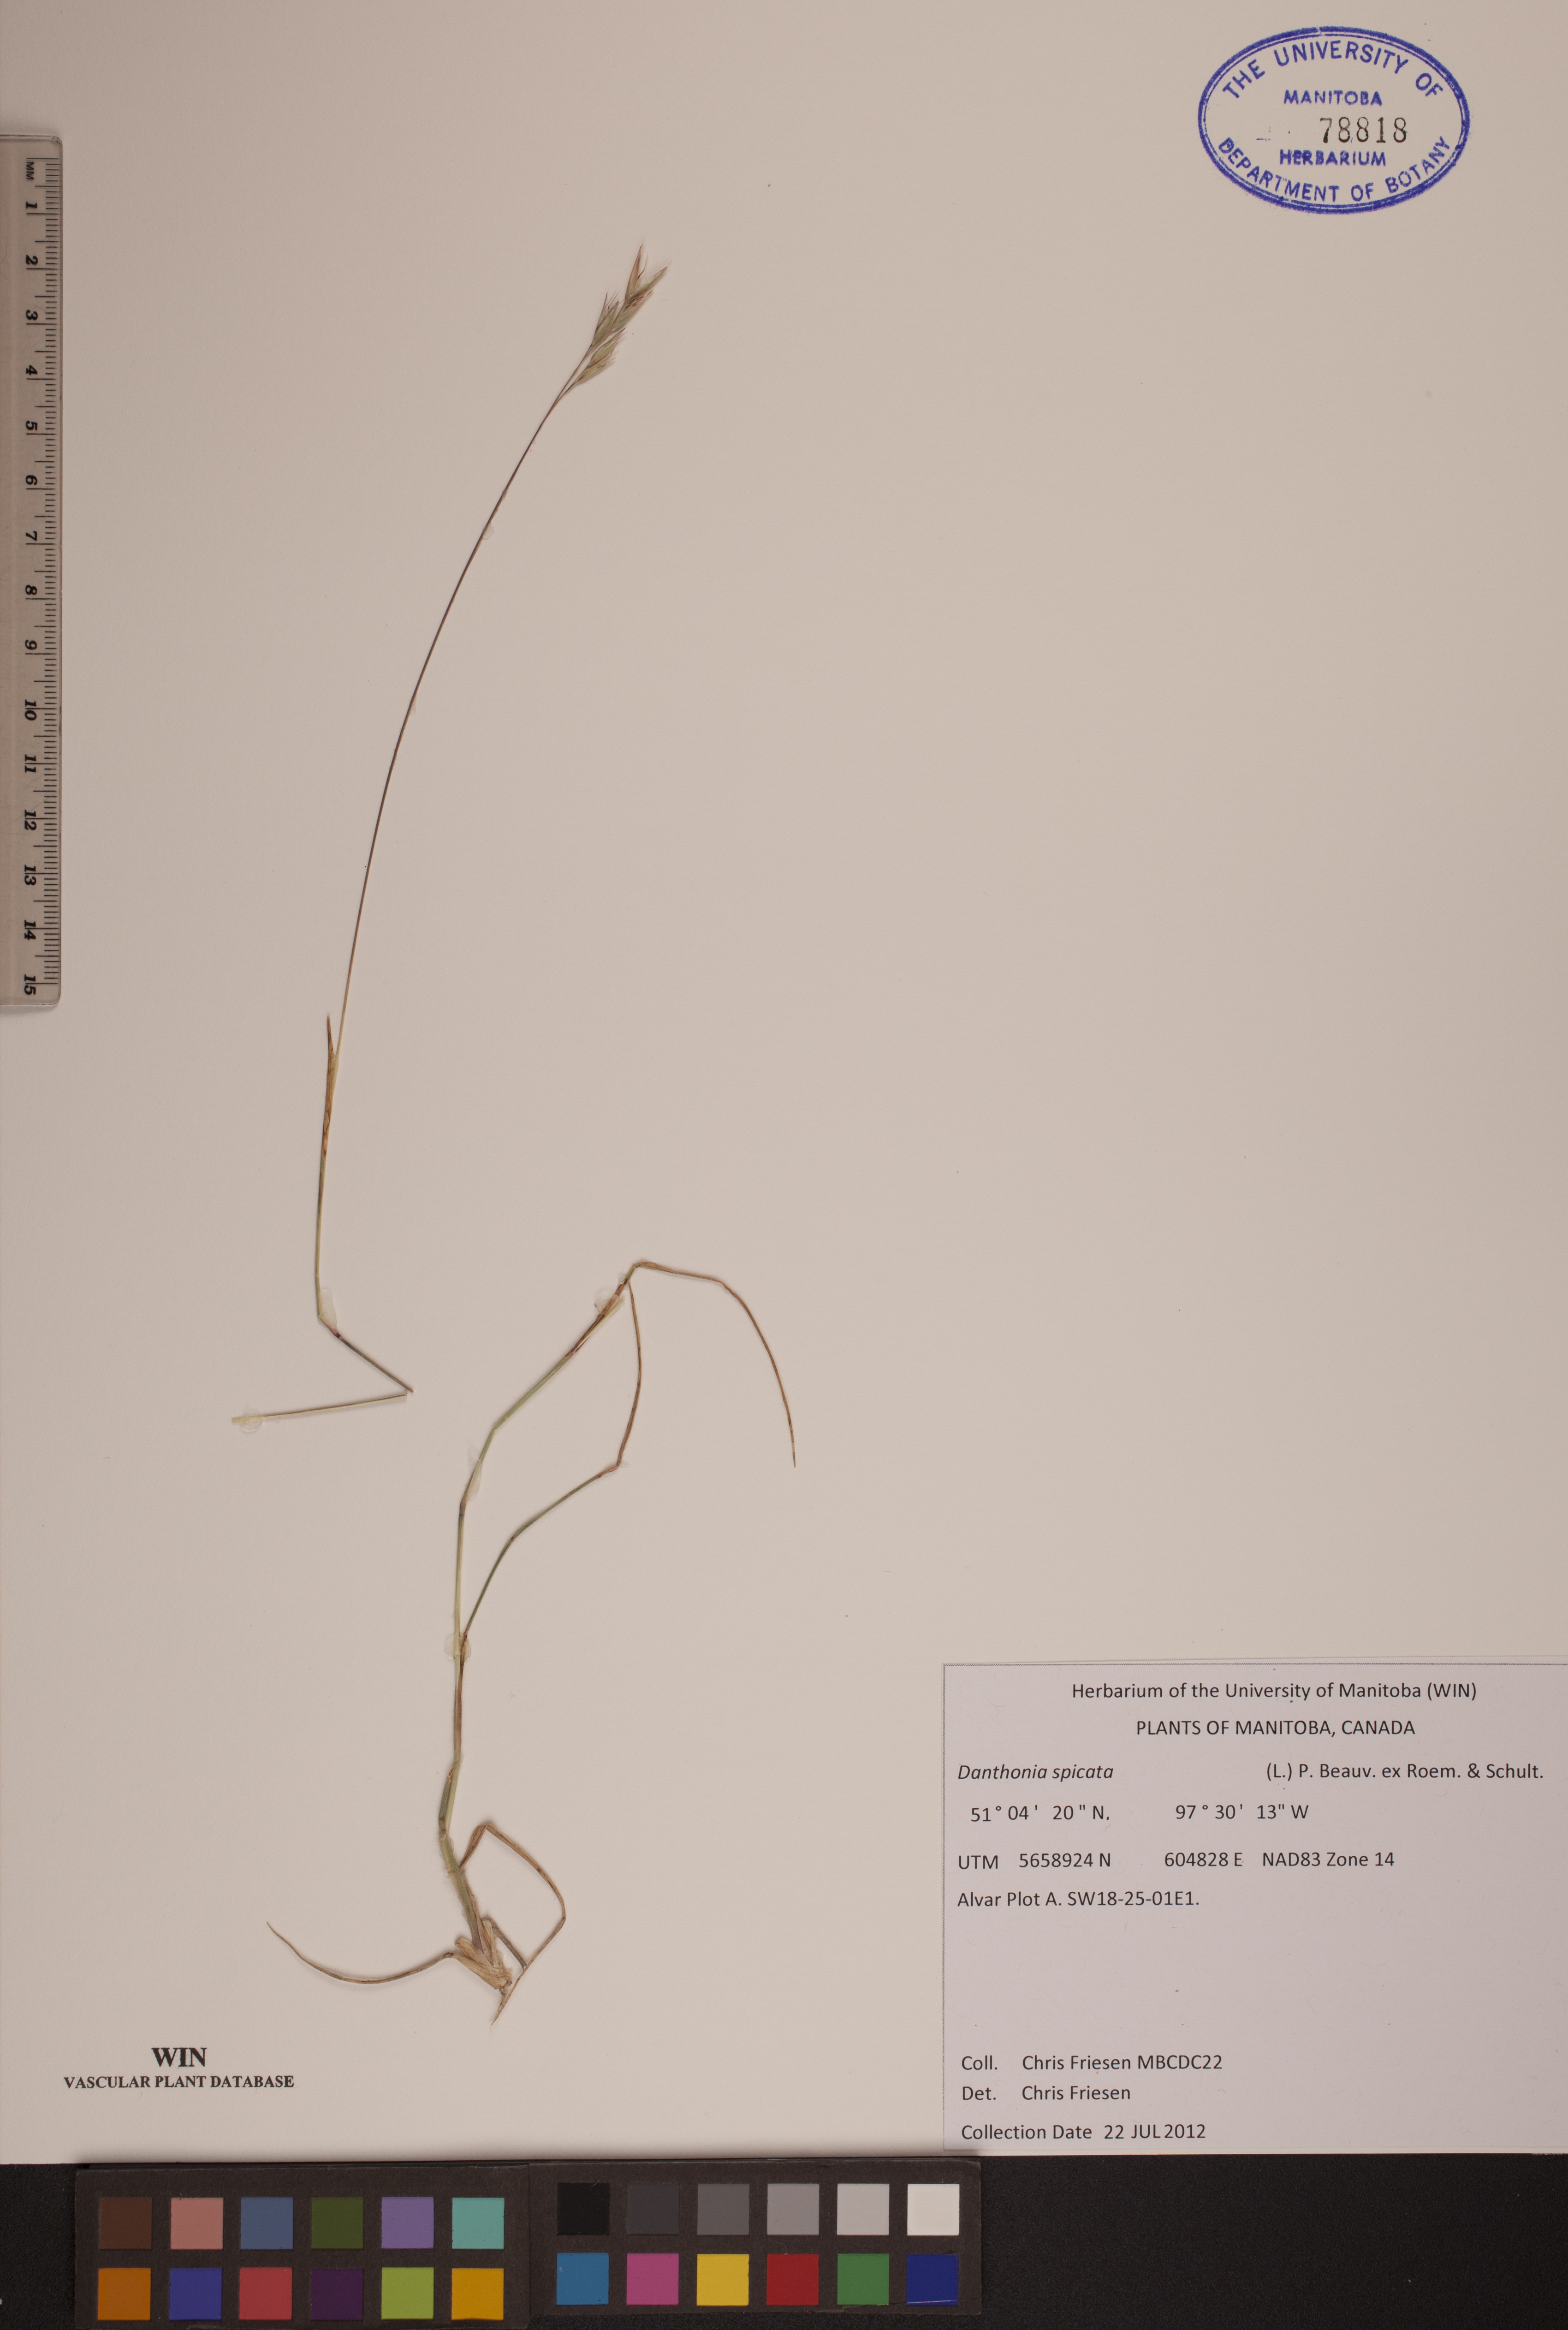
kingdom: Plantae
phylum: Tracheophyta
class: Liliopsida
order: Poales
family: Poaceae
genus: Danthonia
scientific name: Danthonia spicata
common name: Common wild oatgrass
